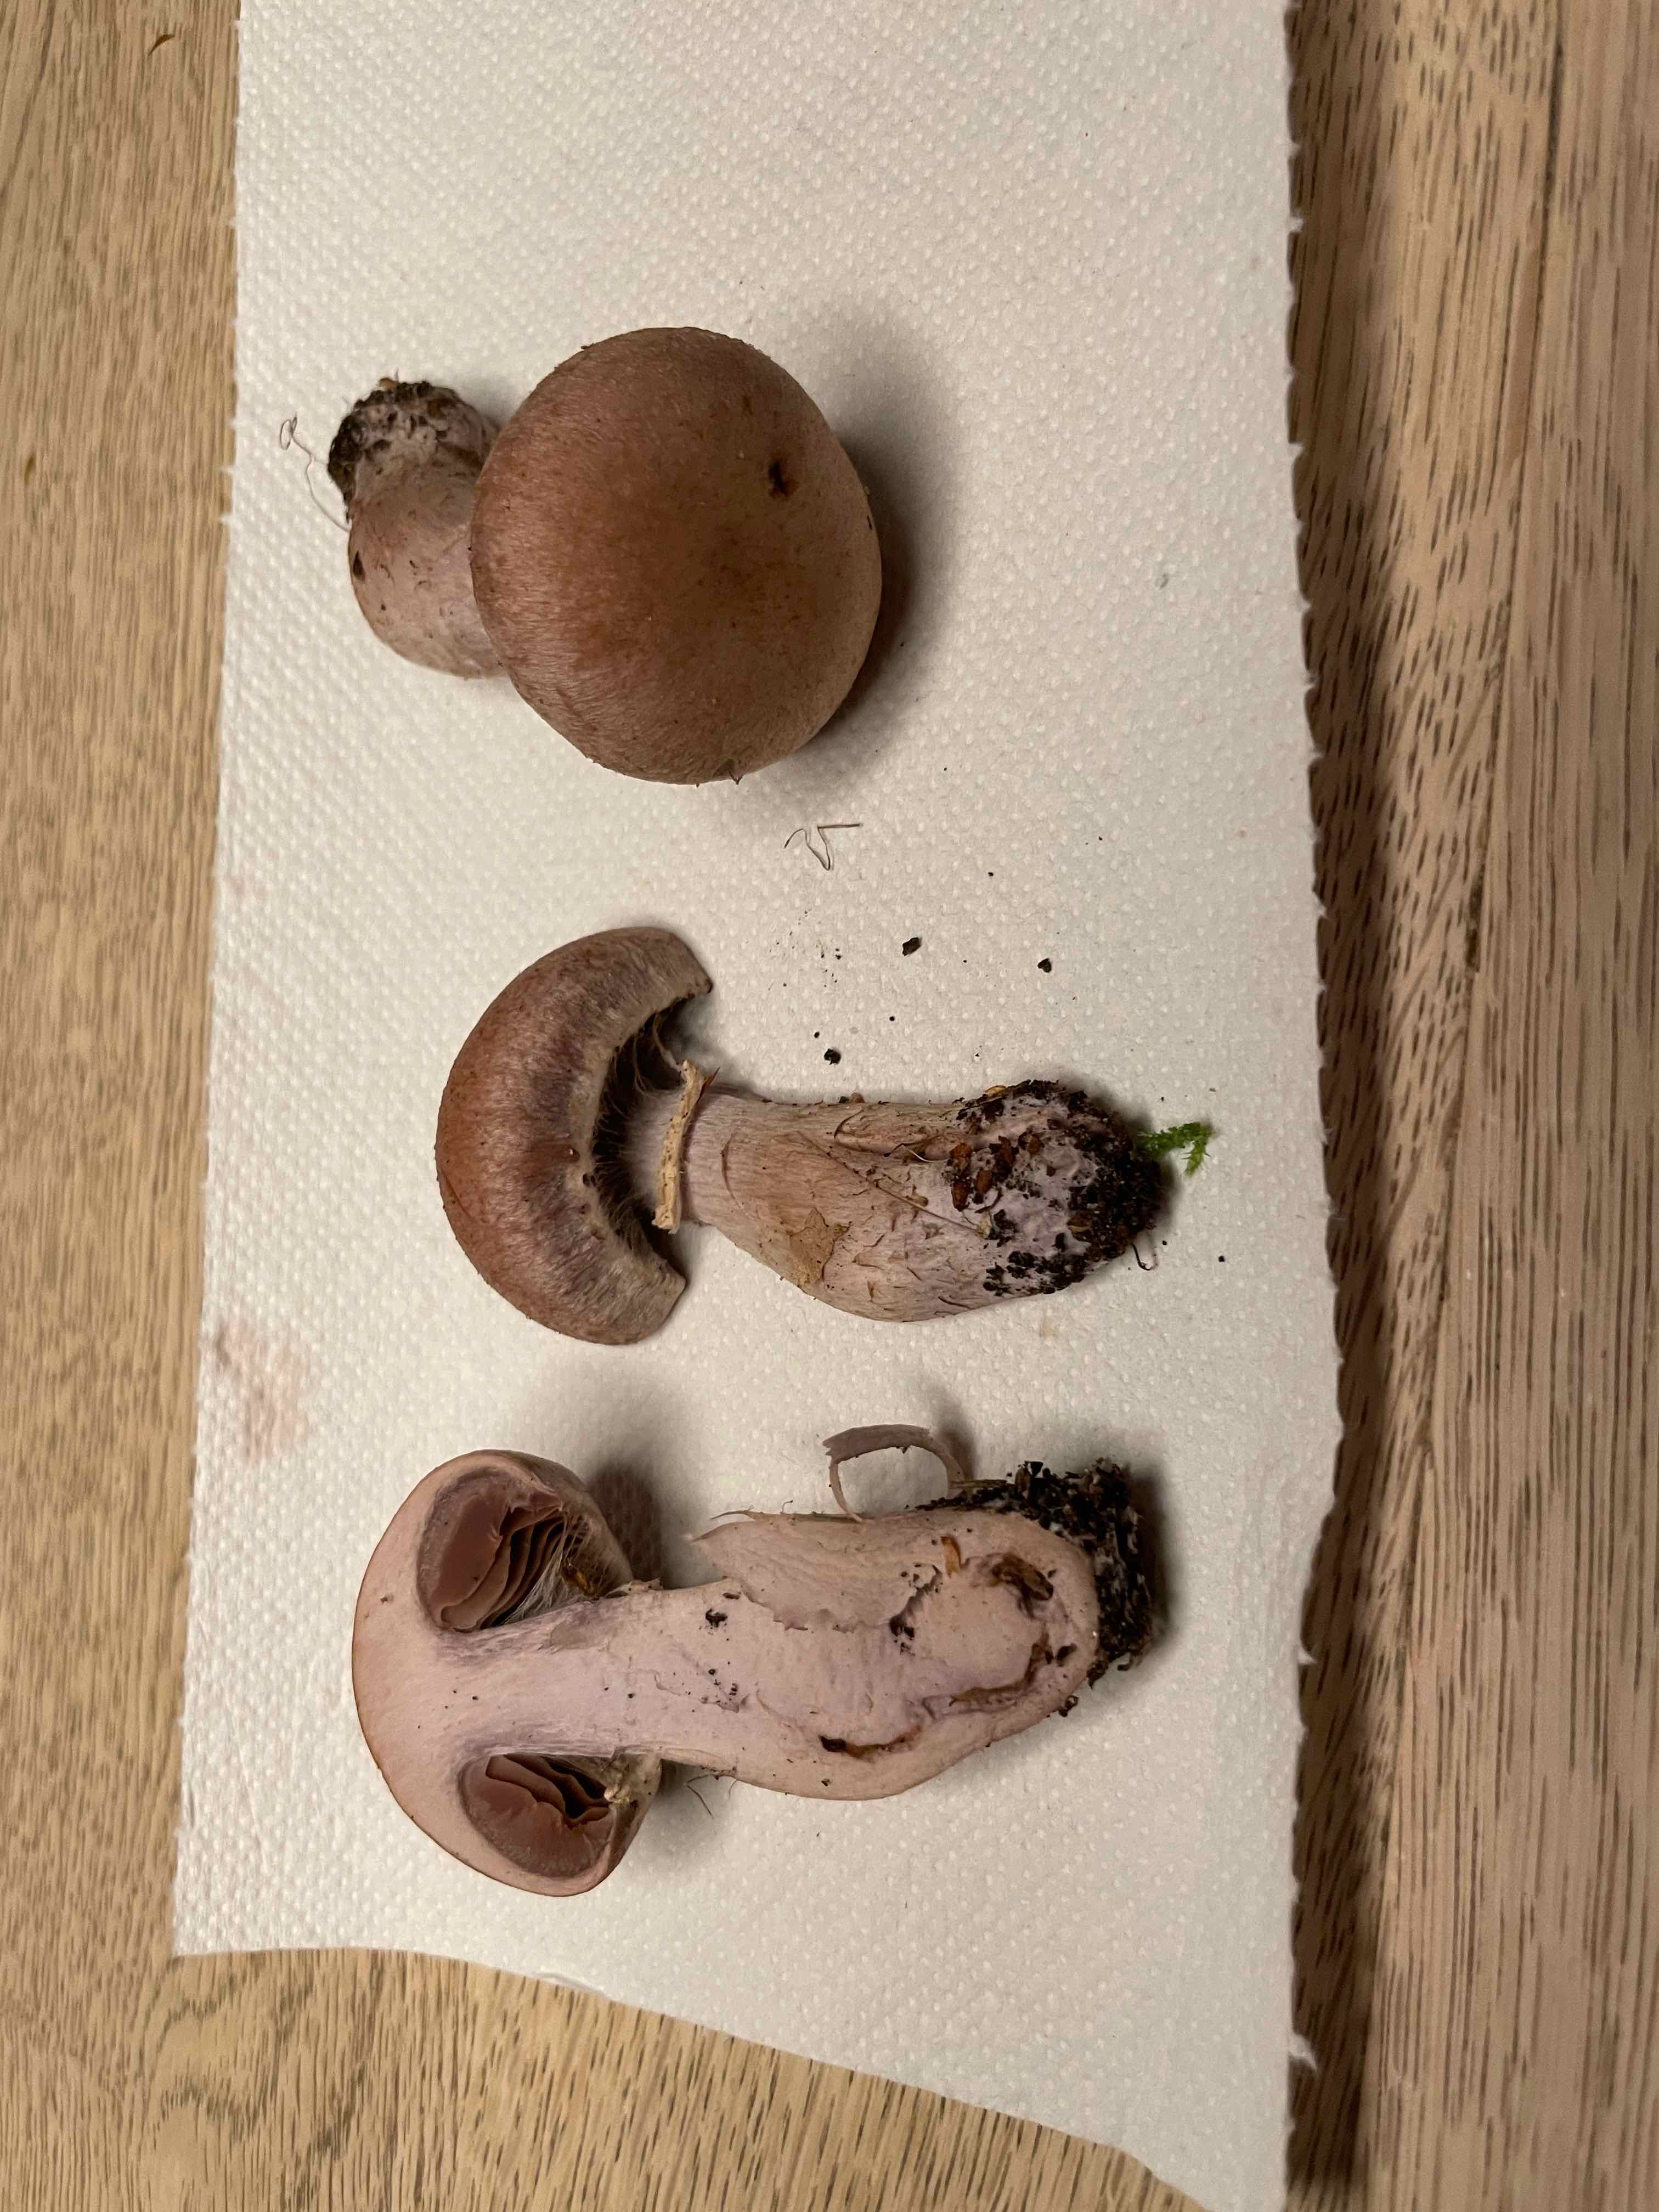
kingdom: Fungi
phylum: Basidiomycota
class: Agaricomycetes
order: Agaricales
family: Cortinariaceae
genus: Cortinarius
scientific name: Cortinarius torvus
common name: champignonagtig slørhat
